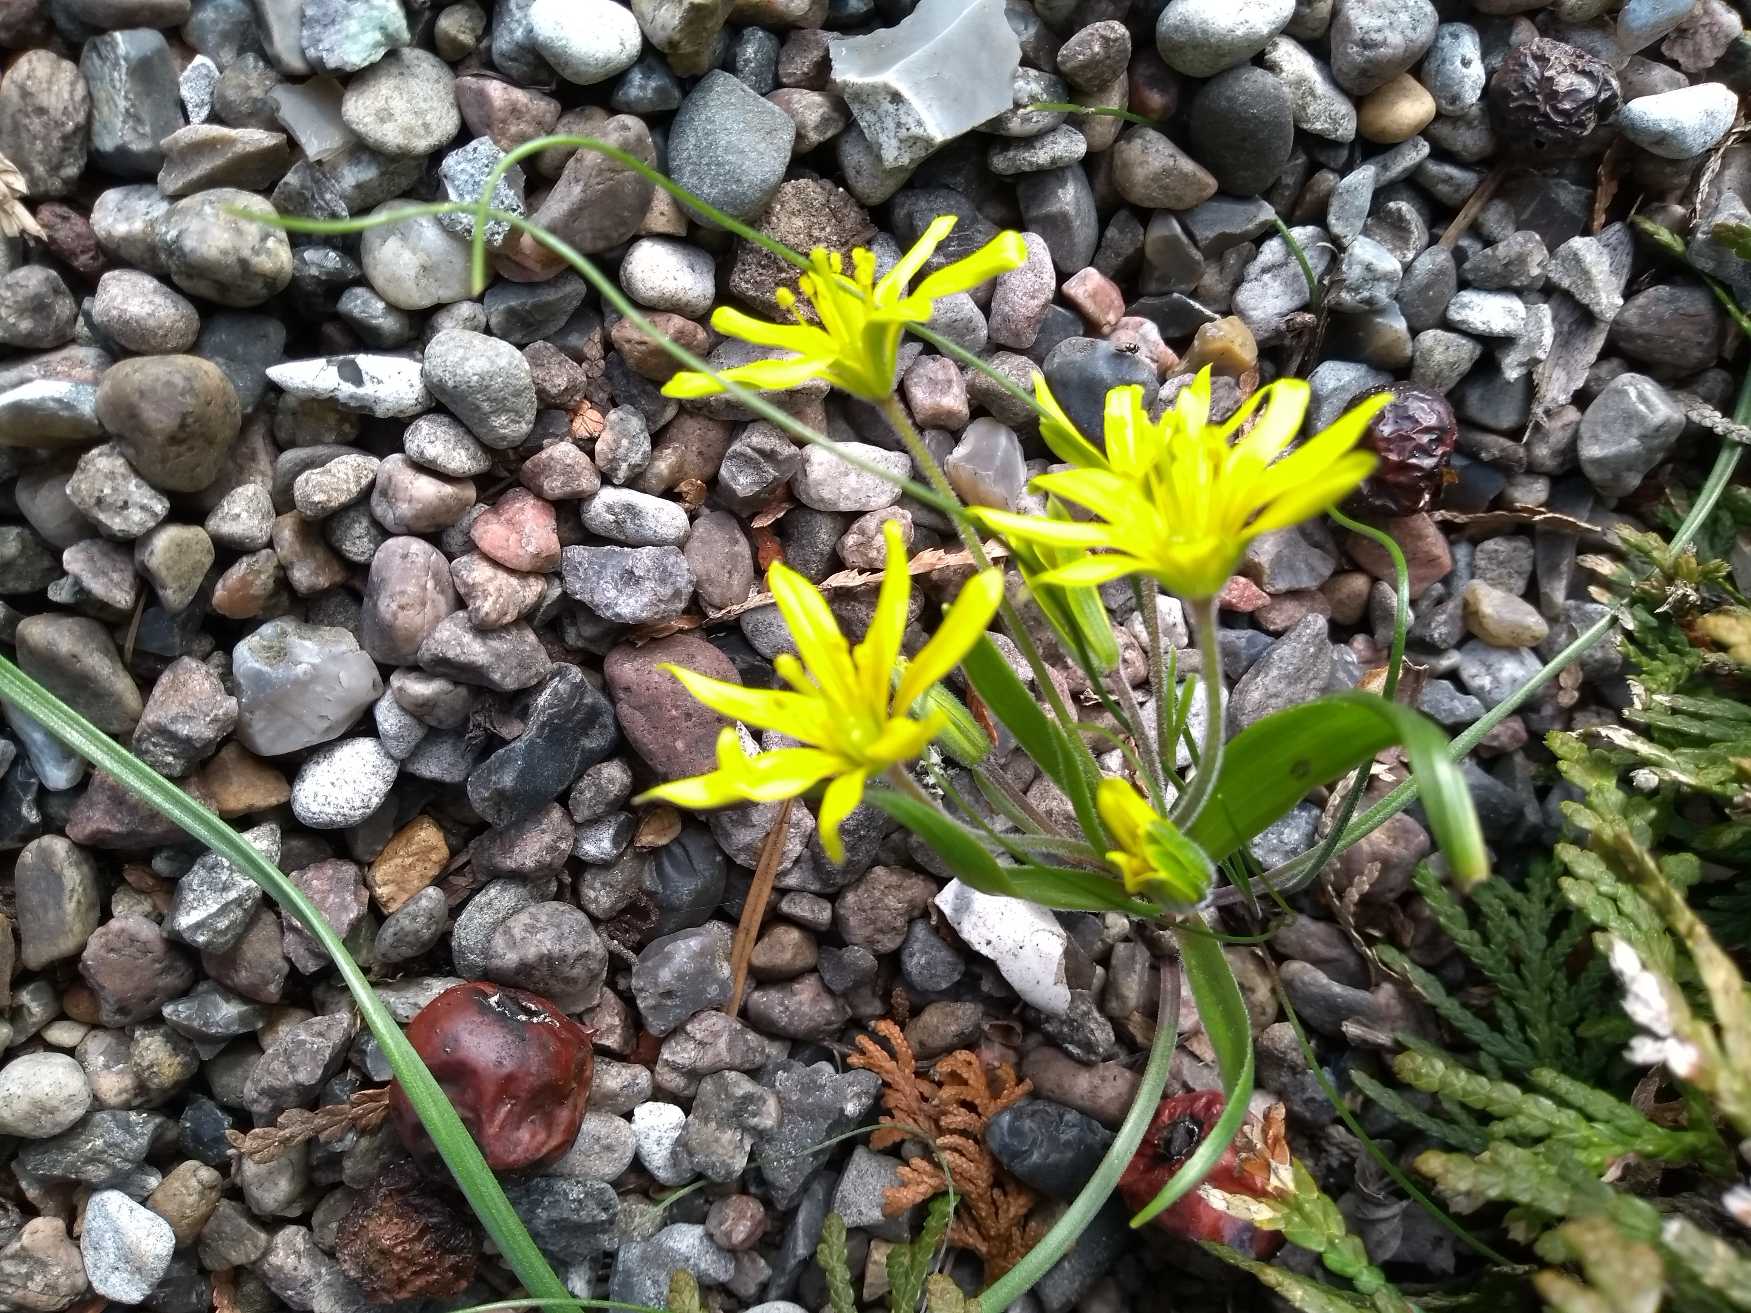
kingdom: Plantae
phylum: Tracheophyta
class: Liliopsida
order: Liliales
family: Liliaceae
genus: Gagea
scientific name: Gagea villosa
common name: Ager-guldstjerne
